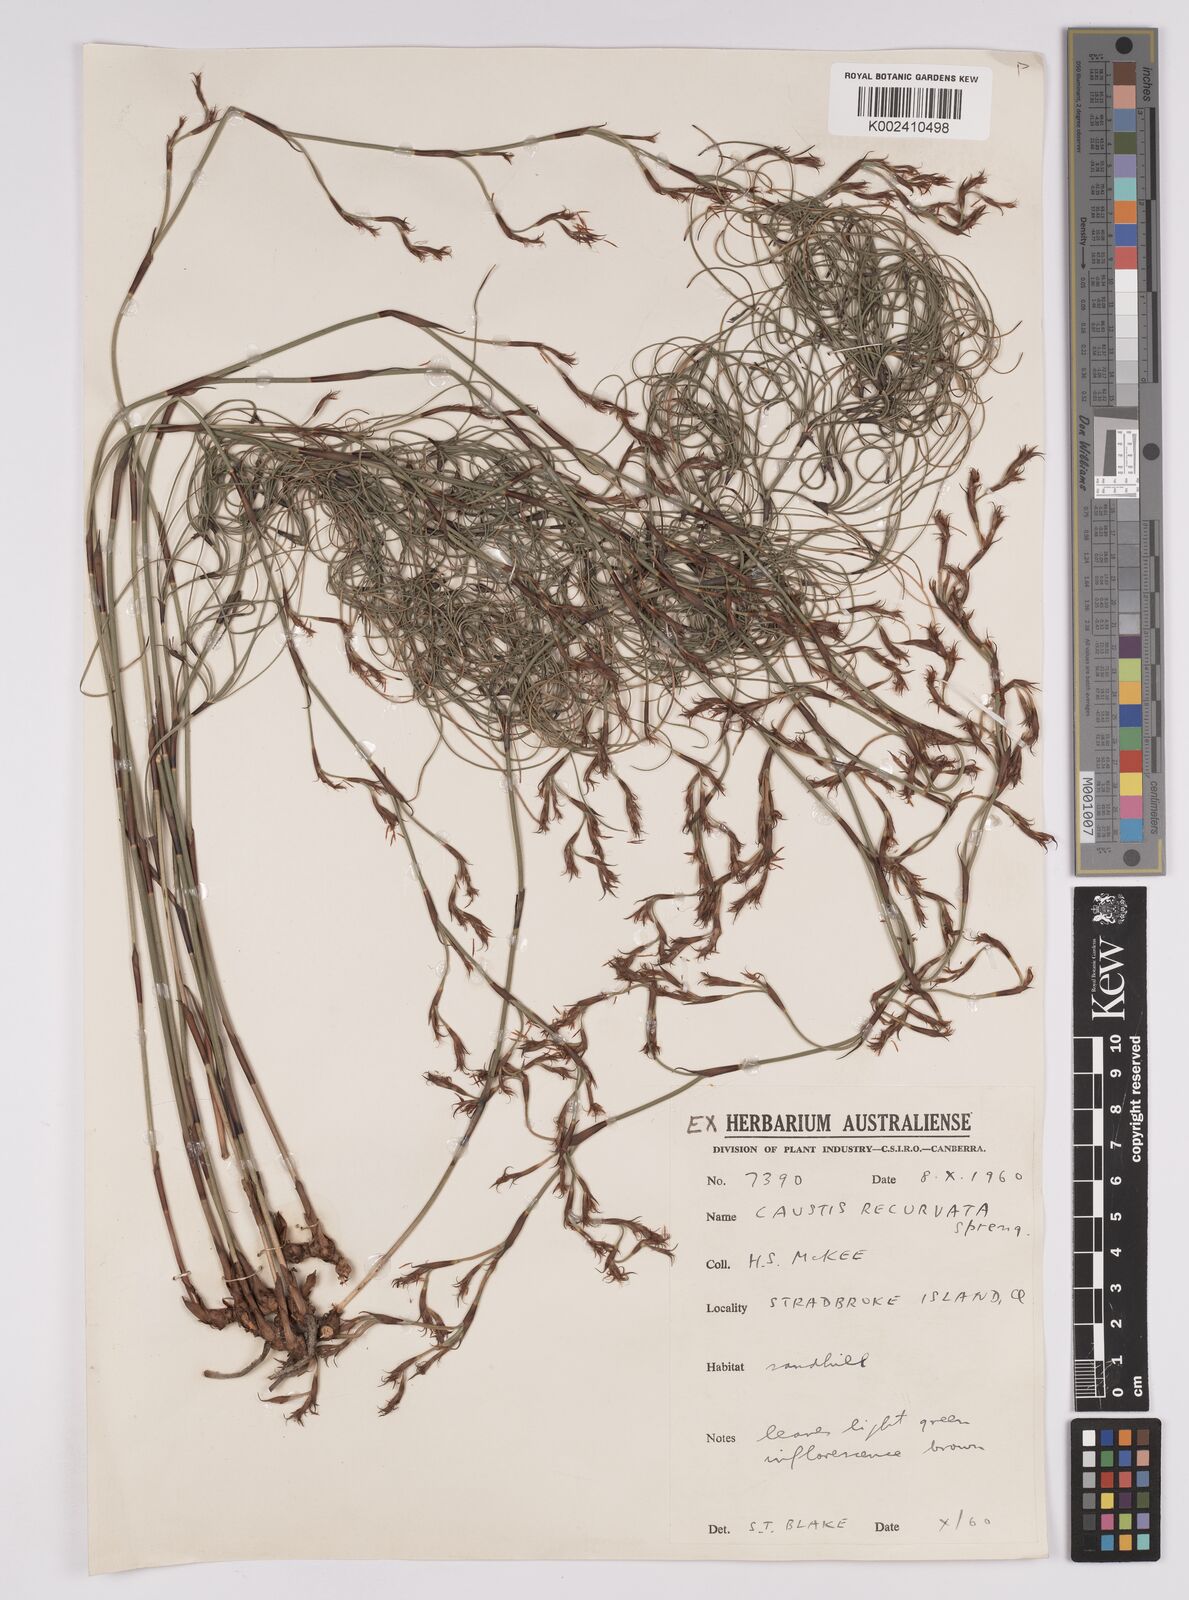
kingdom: Plantae
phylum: Tracheophyta
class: Liliopsida
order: Poales
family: Cyperaceae
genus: Caustis
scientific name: Caustis recurvata
